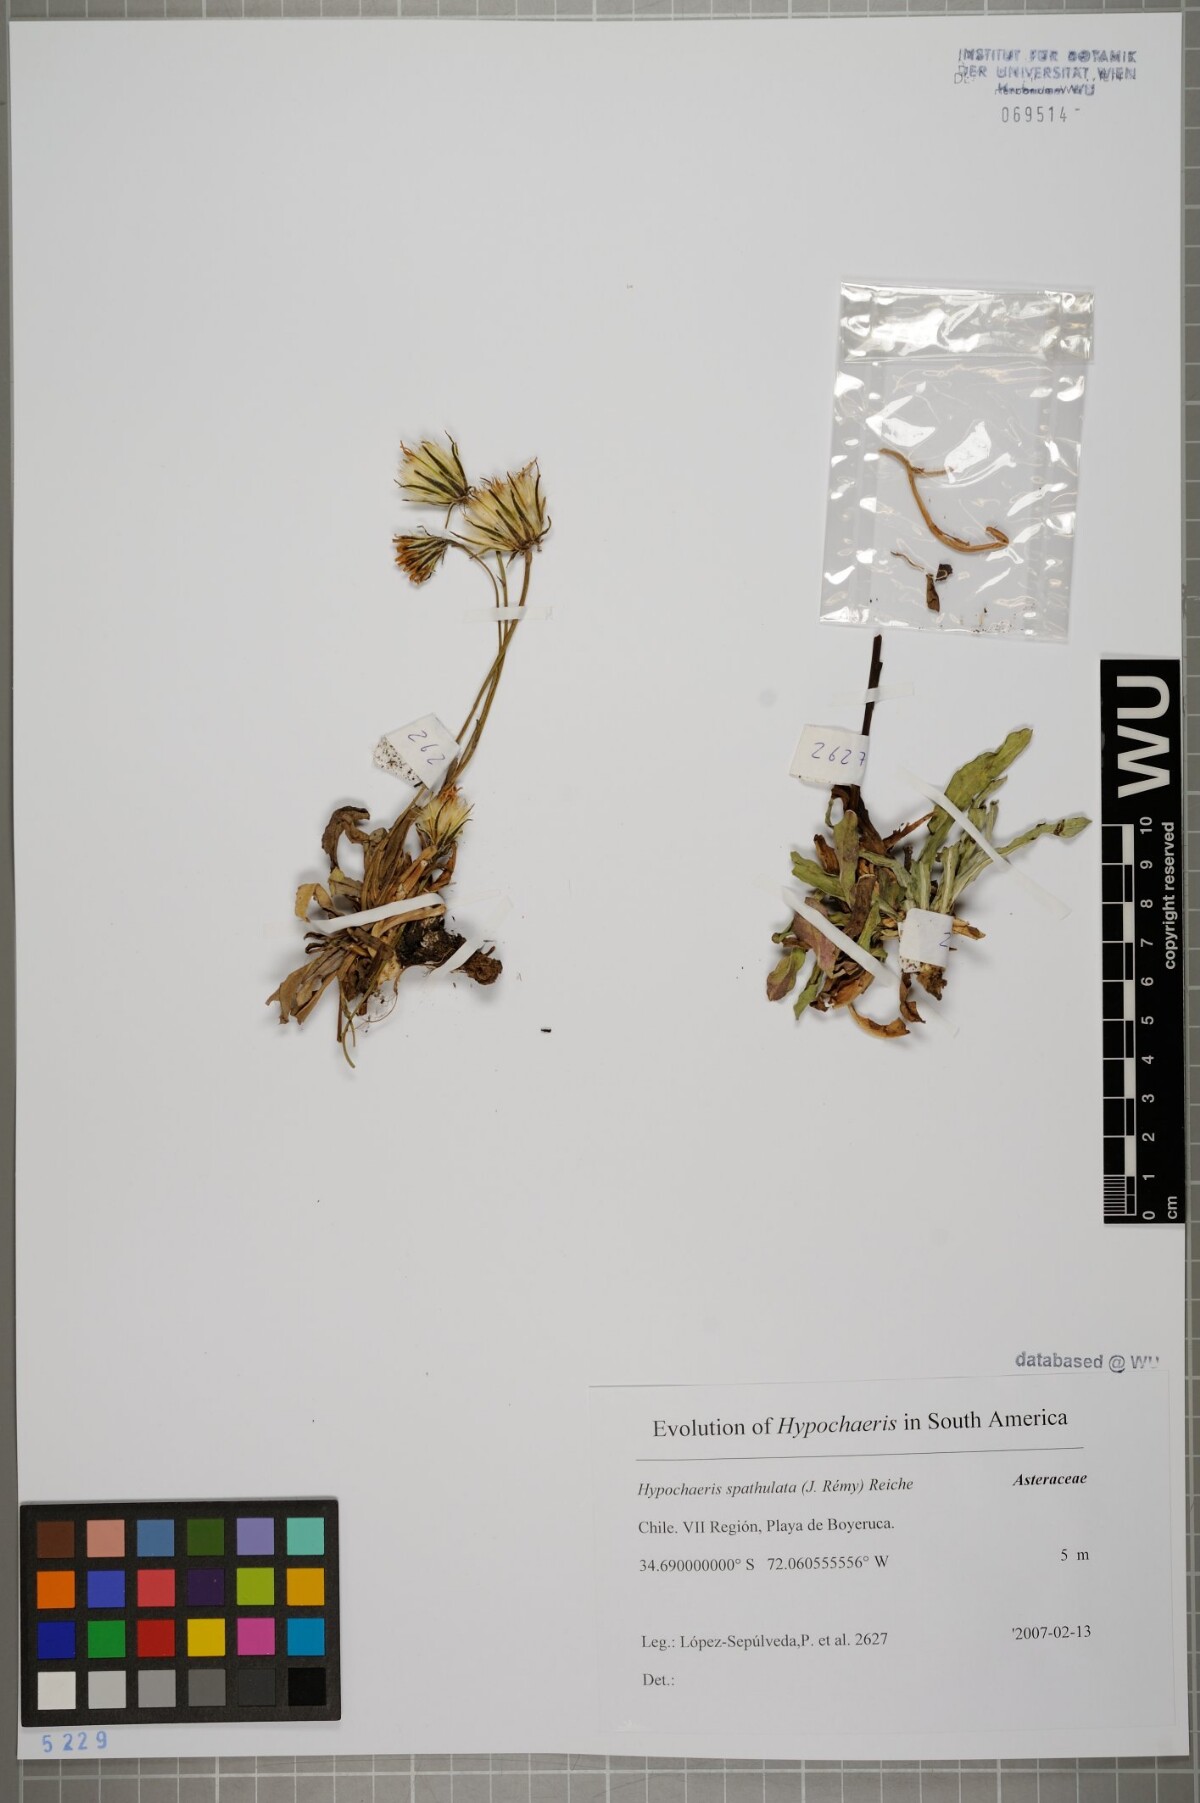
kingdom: Plantae
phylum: Tracheophyta
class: Magnoliopsida
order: Asterales
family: Asteraceae
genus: Hypochaeris
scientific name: Hypochaeris spathulata
